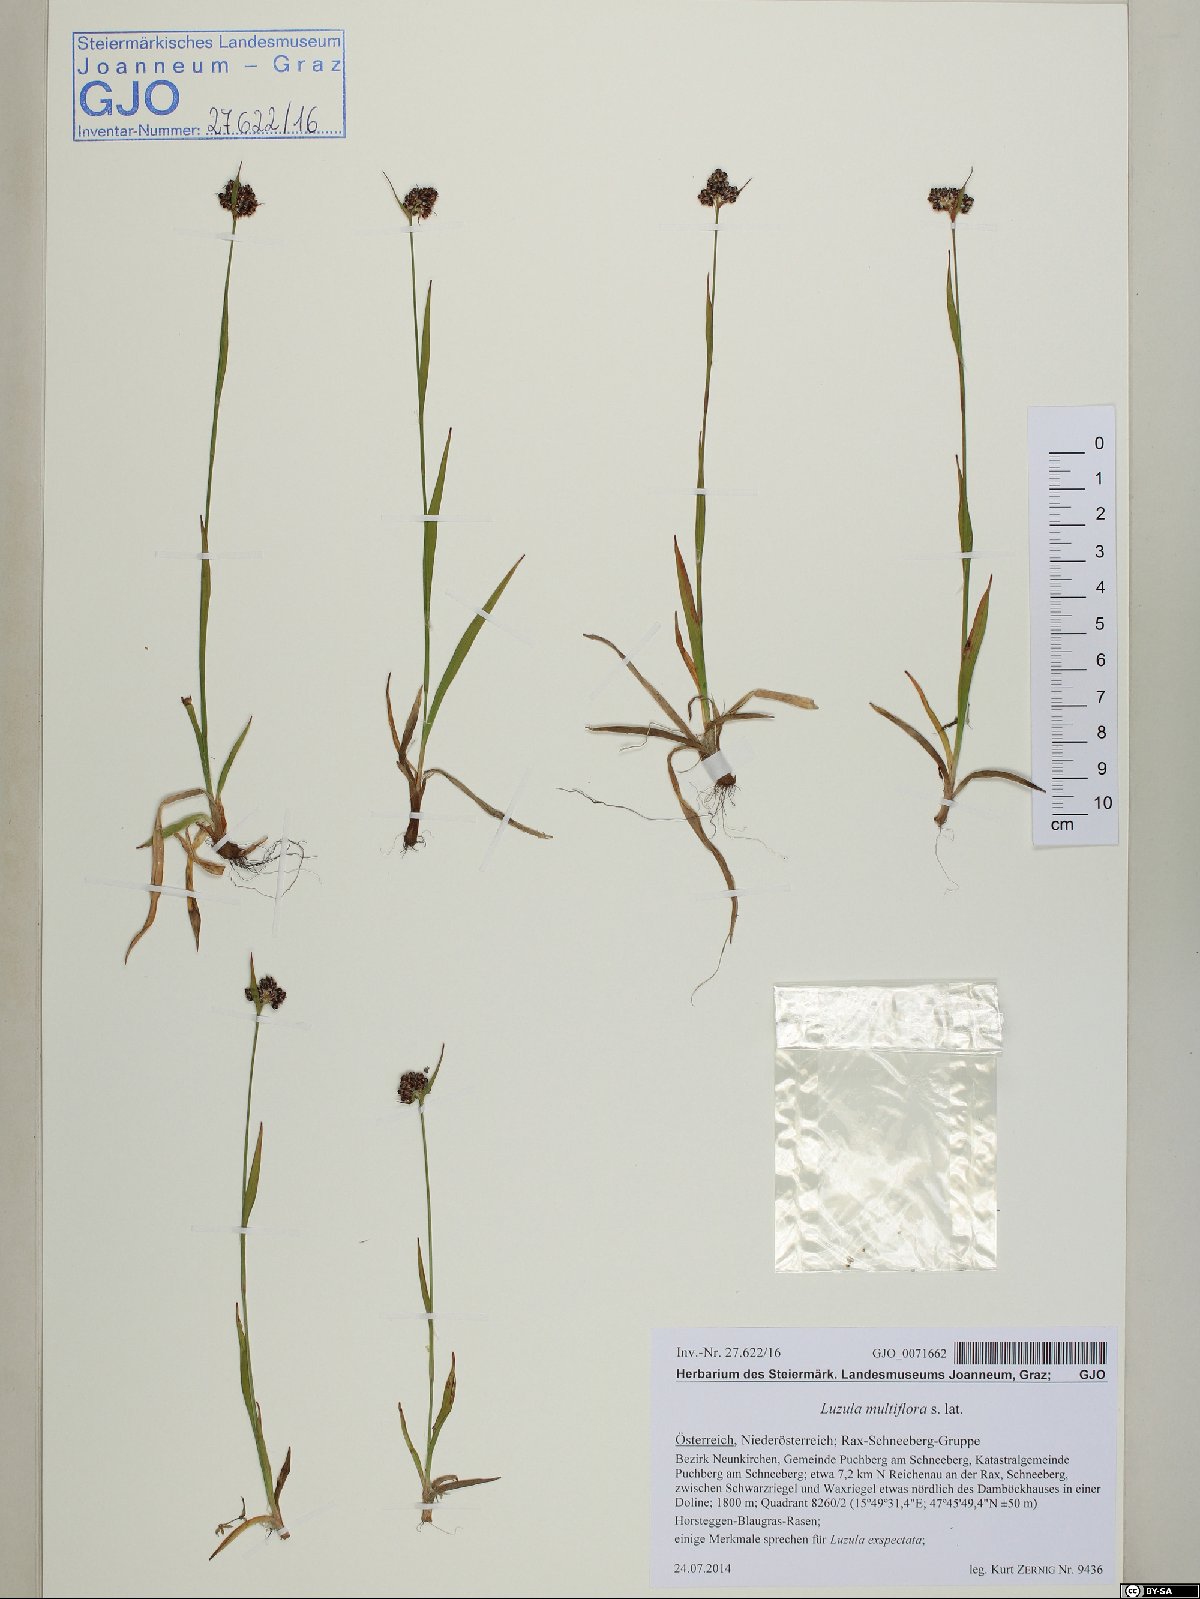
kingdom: Plantae
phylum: Tracheophyta
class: Liliopsida
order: Poales
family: Juncaceae
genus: Luzula
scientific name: Luzula multiflora
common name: Heath wood-rush
